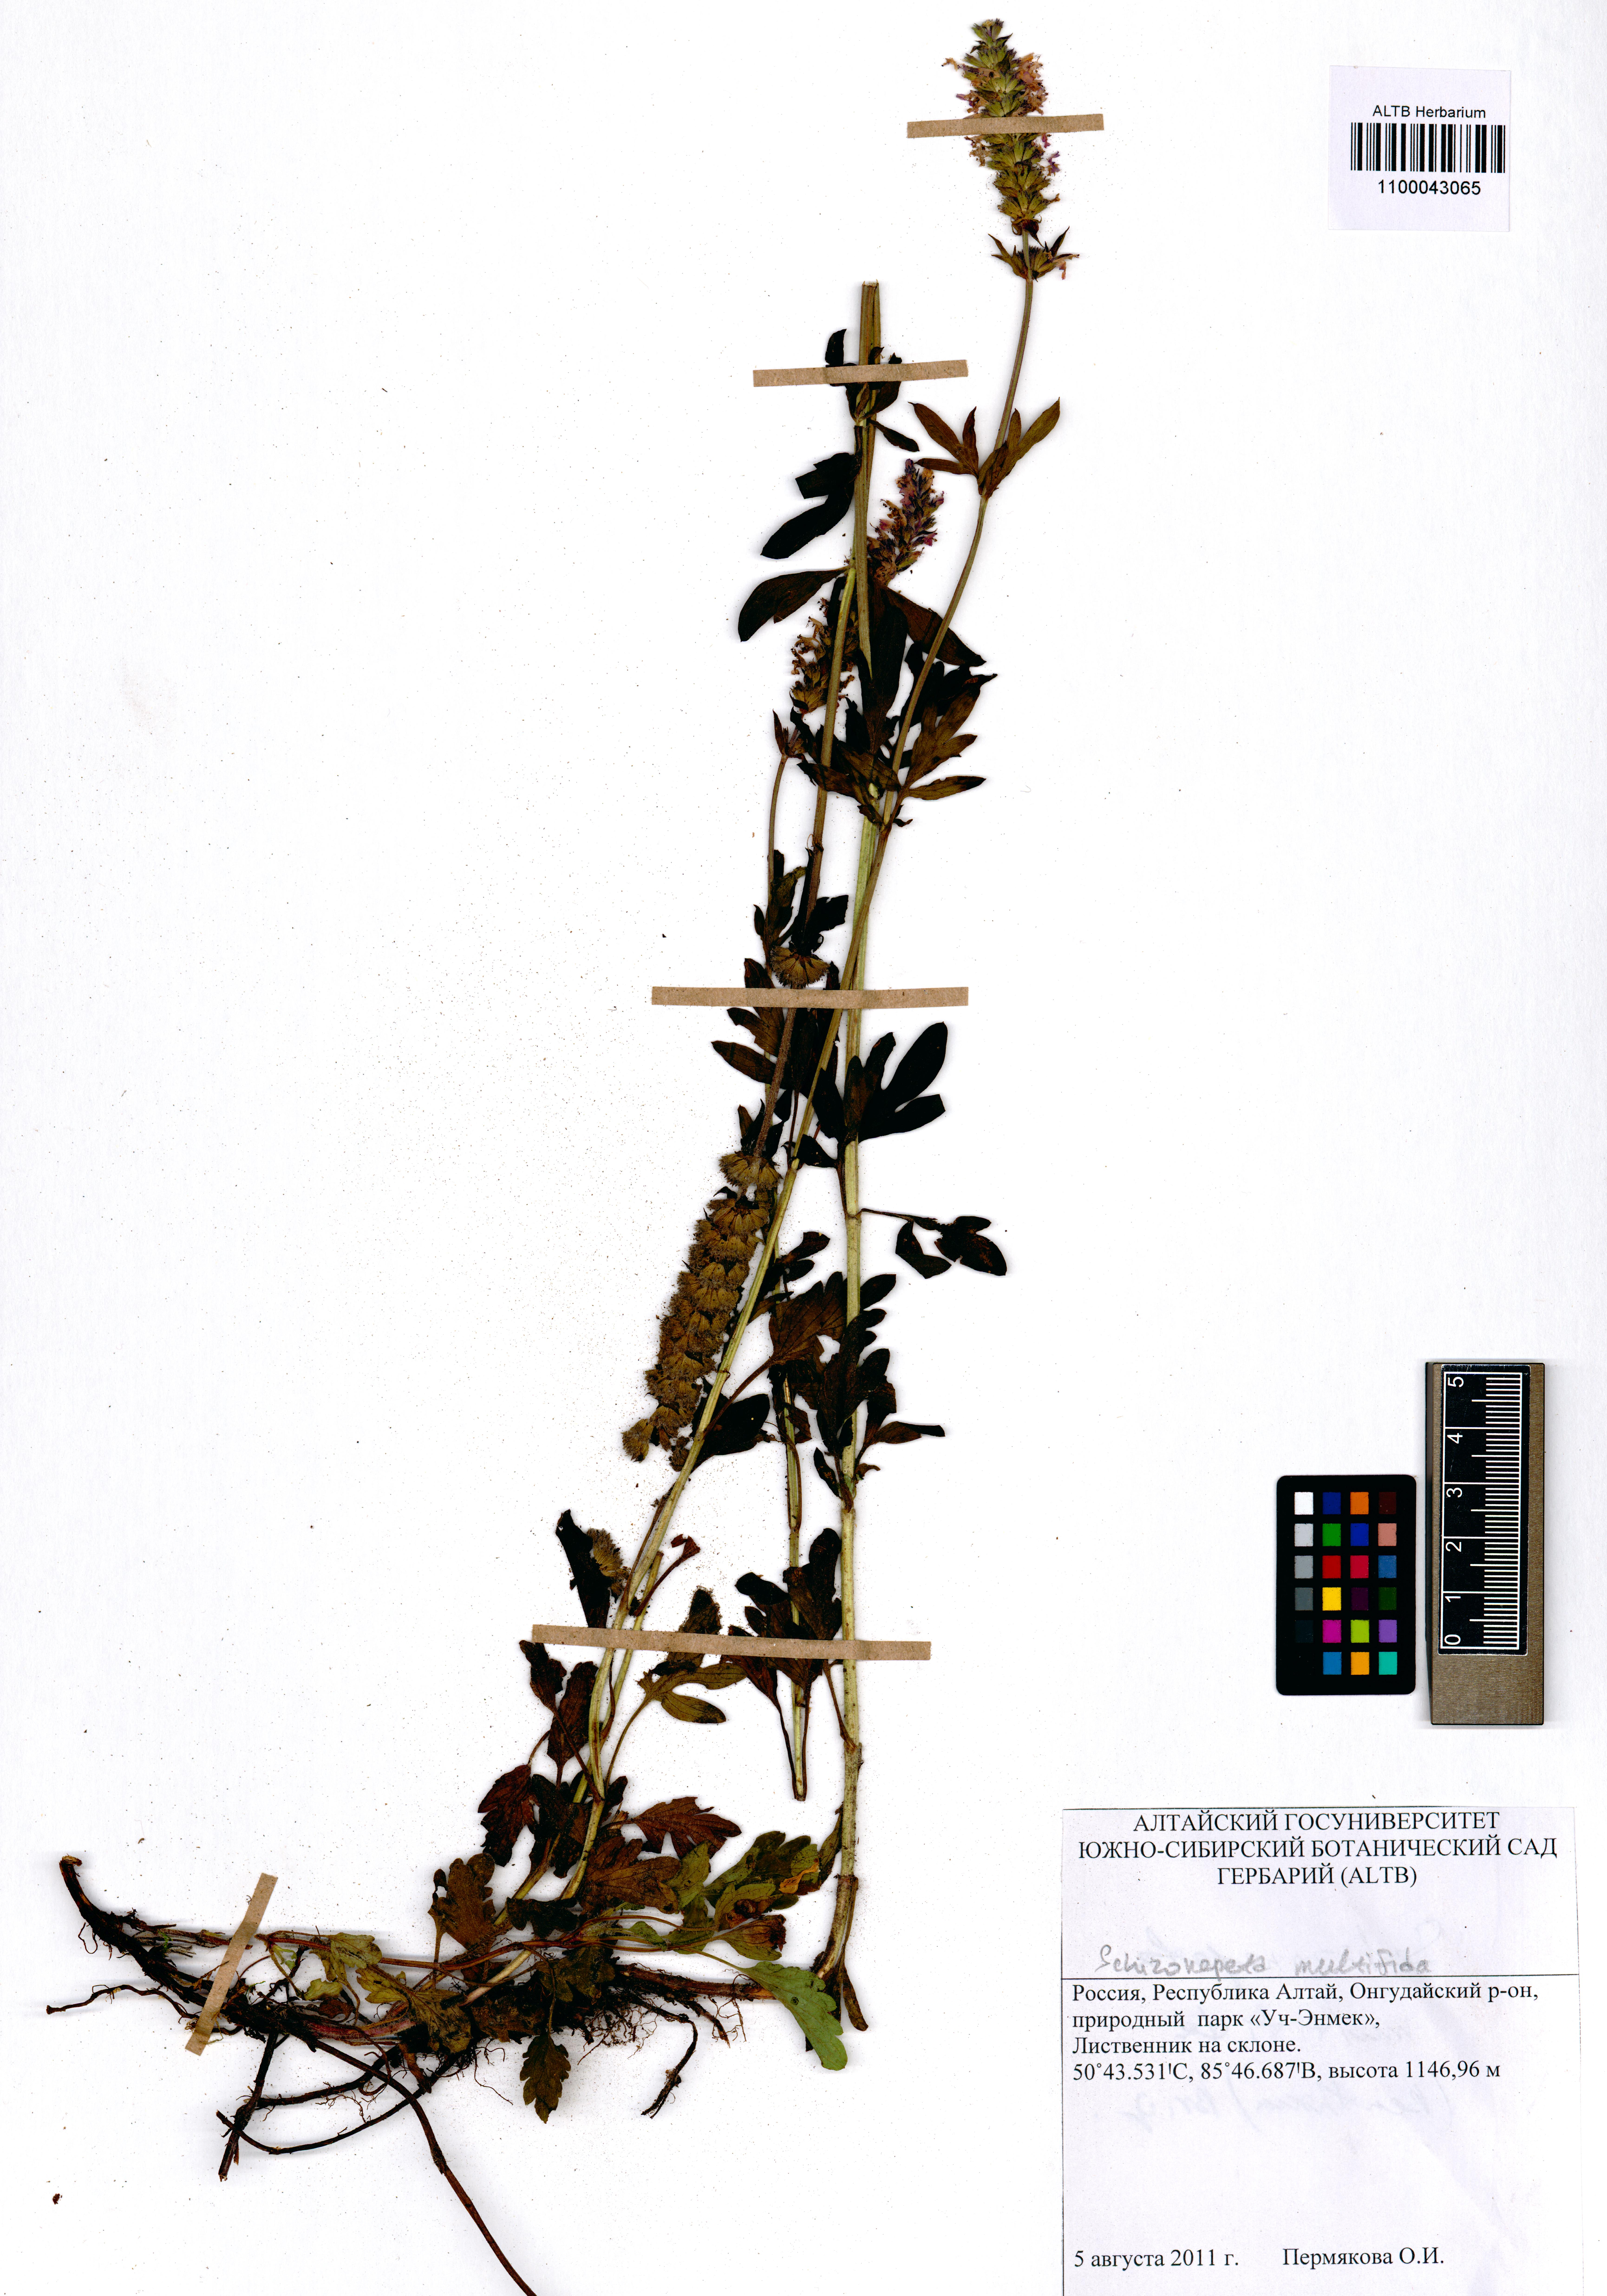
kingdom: Plantae
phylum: Tracheophyta
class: Magnoliopsida
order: Lamiales
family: Lamiaceae
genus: Nepeta
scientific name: Nepeta multifida
